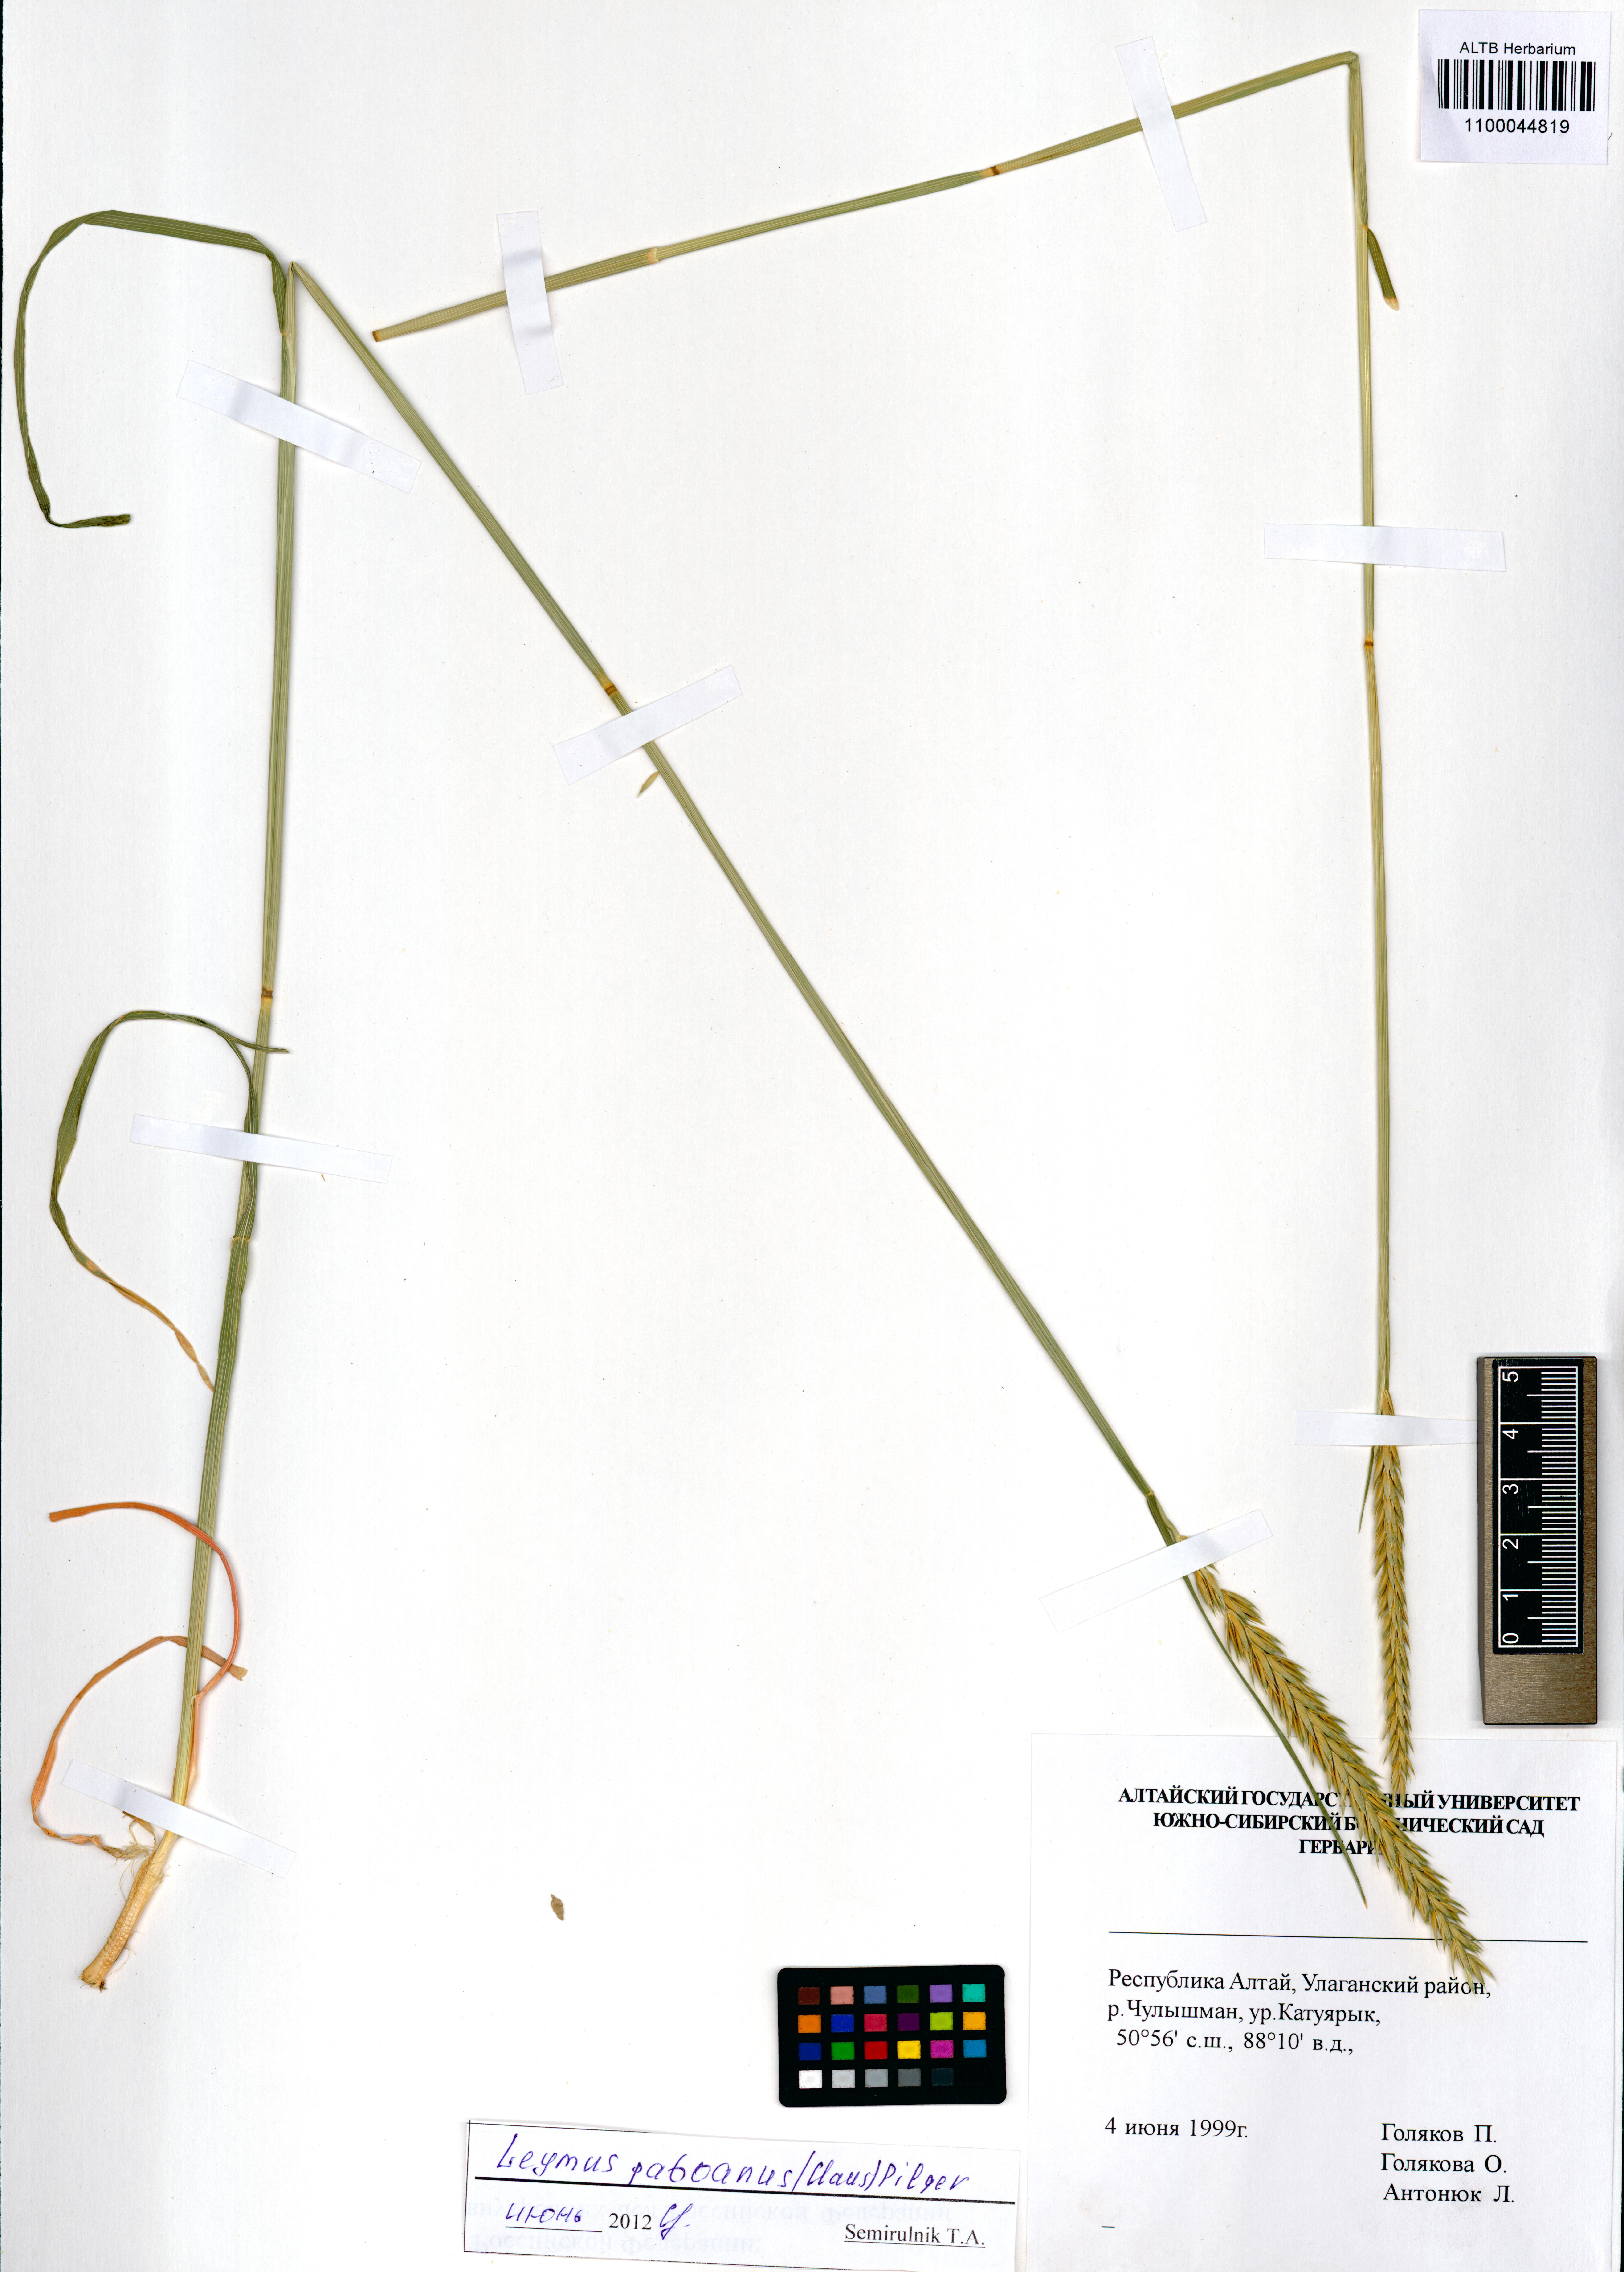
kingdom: Plantae
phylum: Tracheophyta
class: Liliopsida
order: Poales
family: Poaceae
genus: Leymus
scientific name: Leymus paboanus
